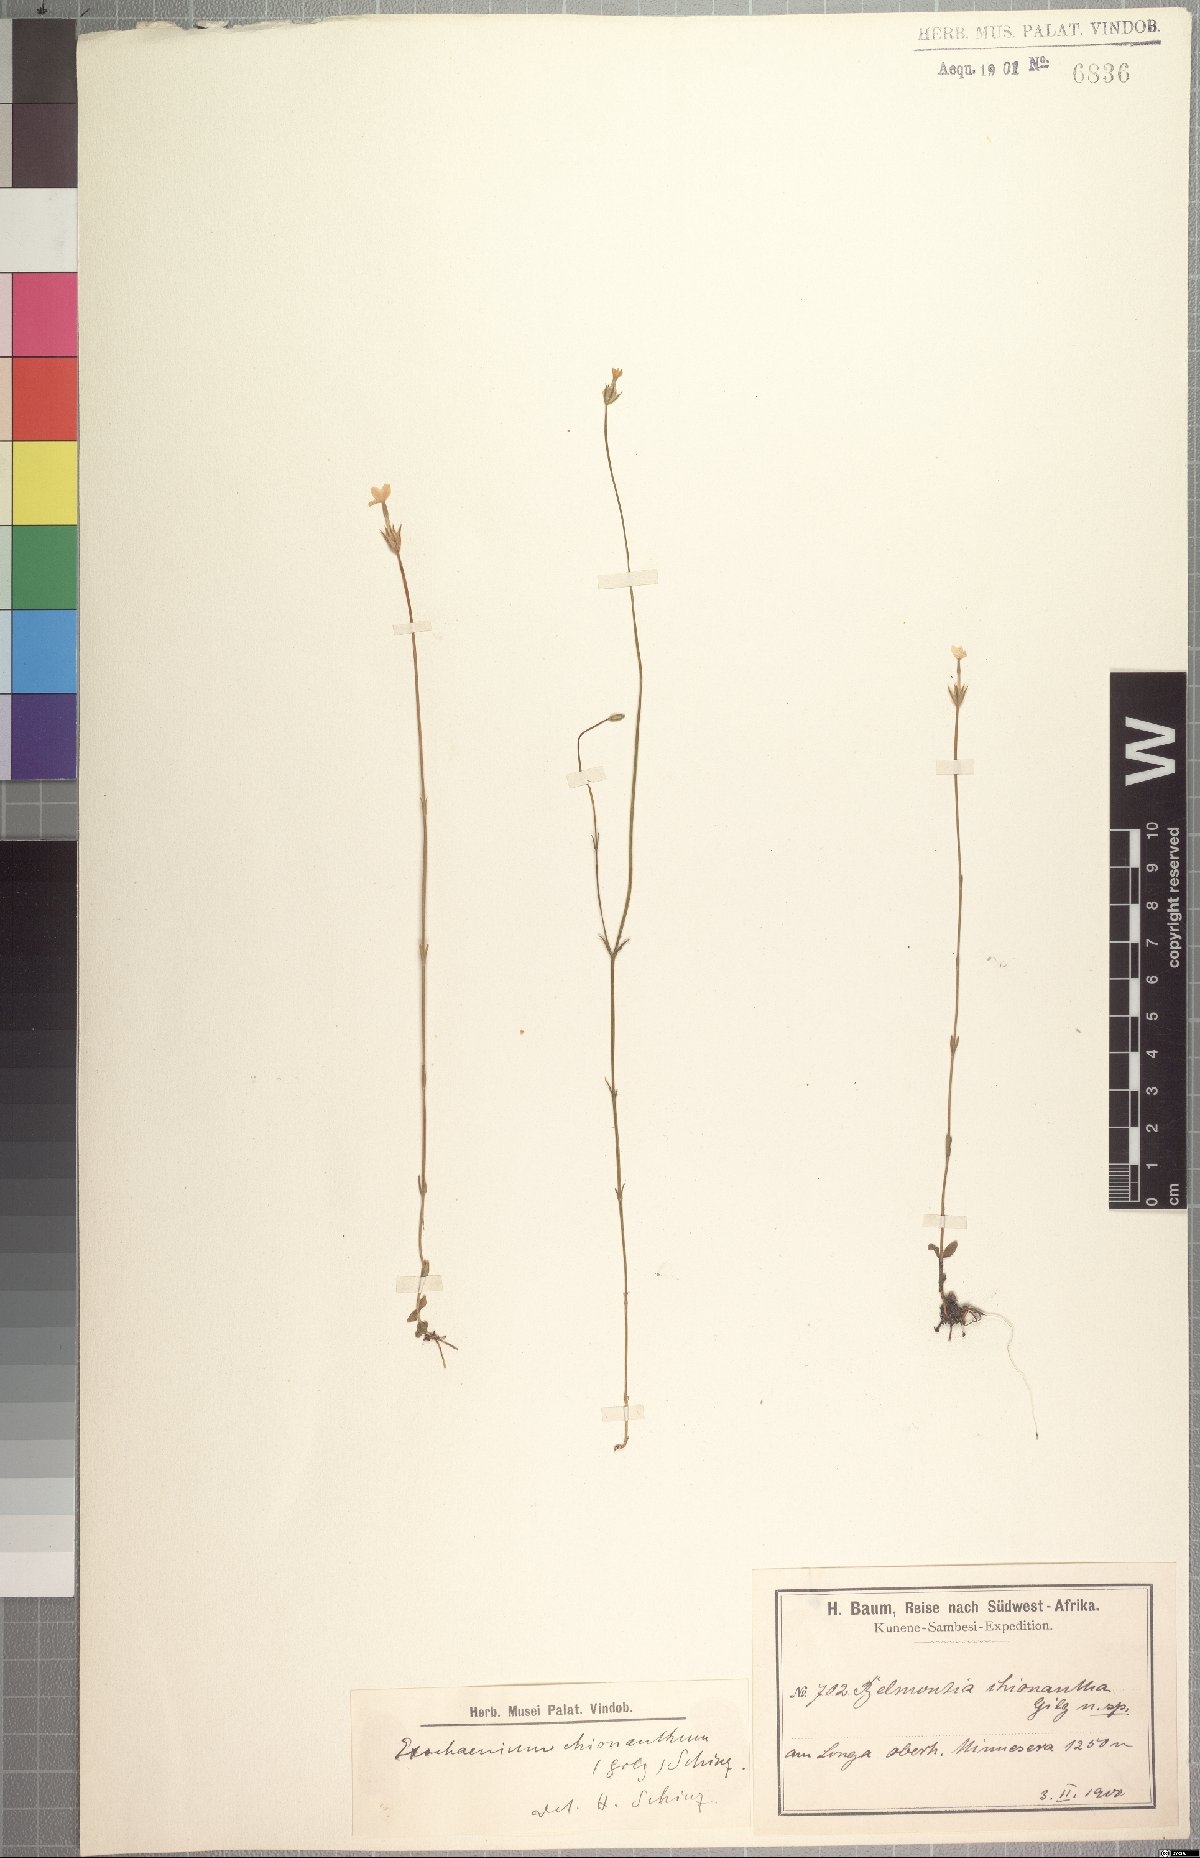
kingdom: Plantae
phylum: Tracheophyta
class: Magnoliopsida
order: Gentianales
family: Gentianaceae
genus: Exochaenium
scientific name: Exochaenium teuszii
